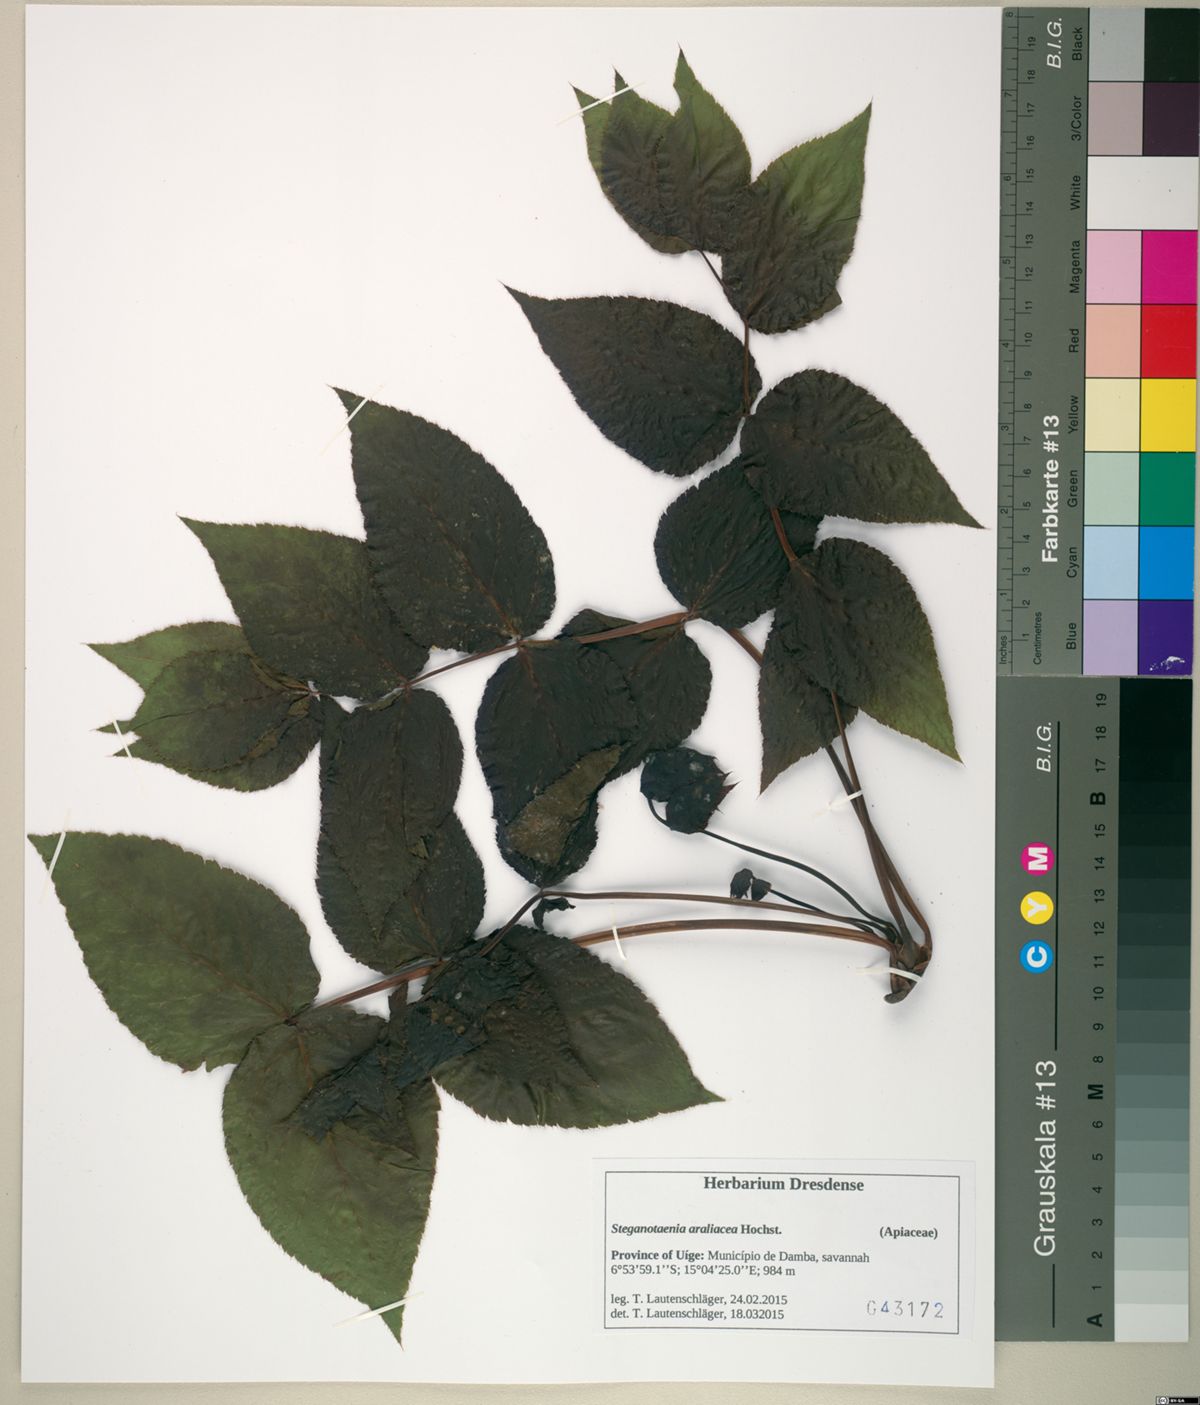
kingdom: Plantae
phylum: Tracheophyta
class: Magnoliopsida
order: Apiales
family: Apiaceae
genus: Steganotaenia
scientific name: Steganotaenia araliacea
